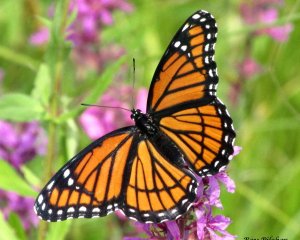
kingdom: Animalia
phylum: Arthropoda
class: Insecta
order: Lepidoptera
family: Nymphalidae
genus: Limenitis
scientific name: Limenitis archippus
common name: Viceroy
